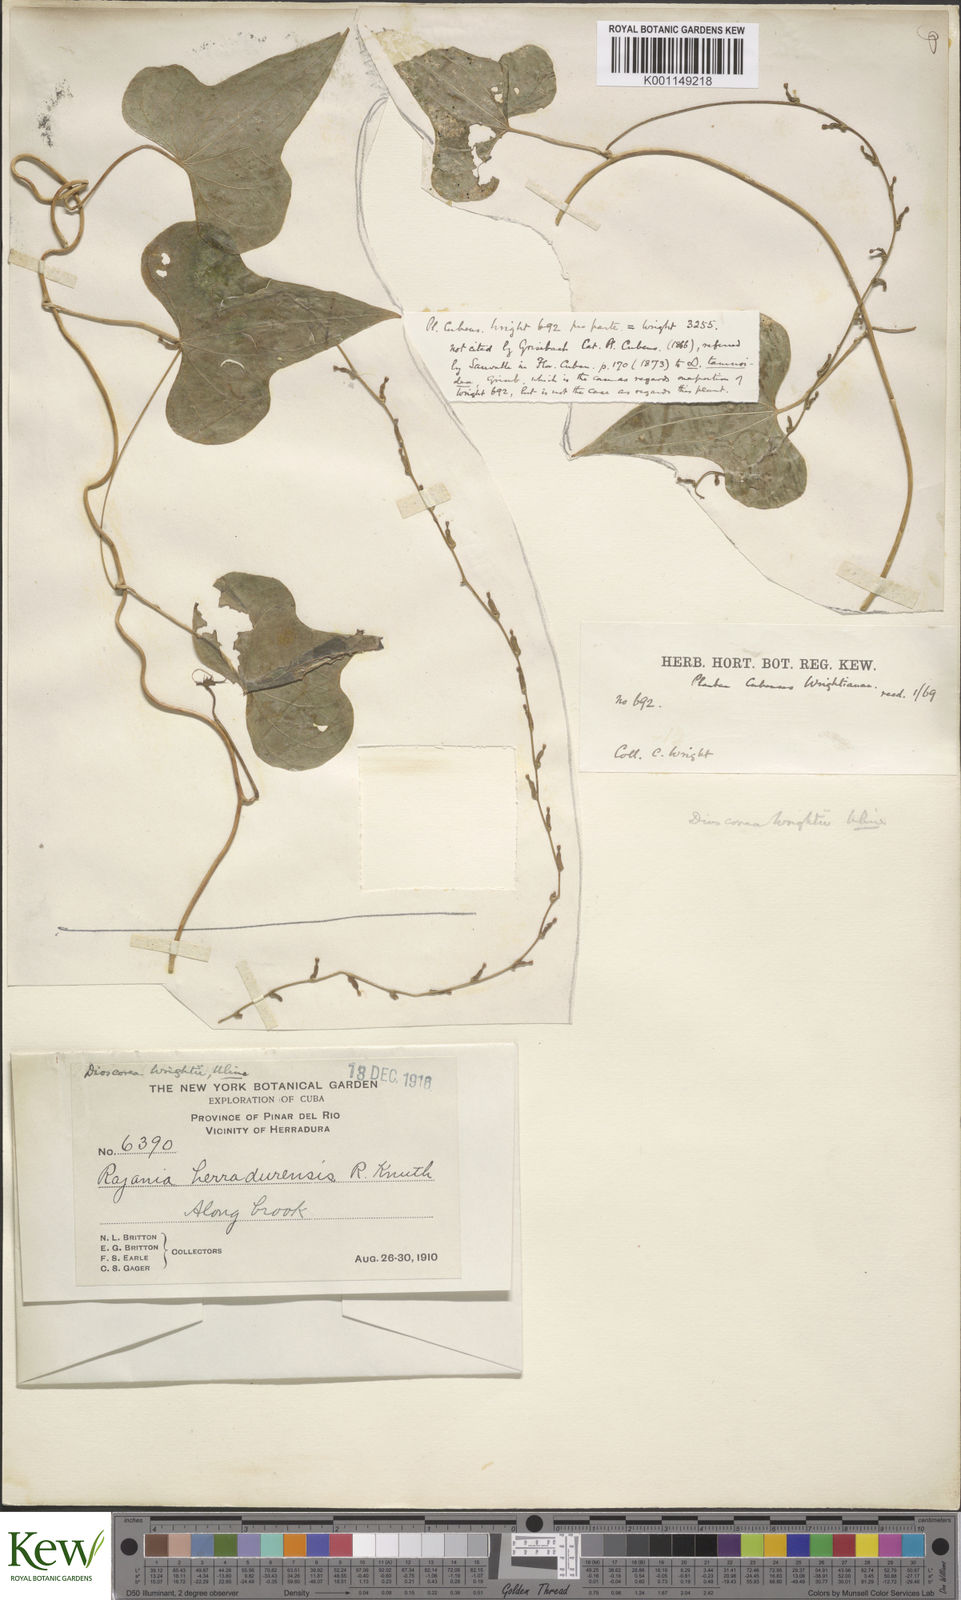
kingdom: Plantae
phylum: Tracheophyta
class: Liliopsida
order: Dioscoreales
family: Dioscoreaceae
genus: Dioscorea
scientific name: Dioscorea wrightii
